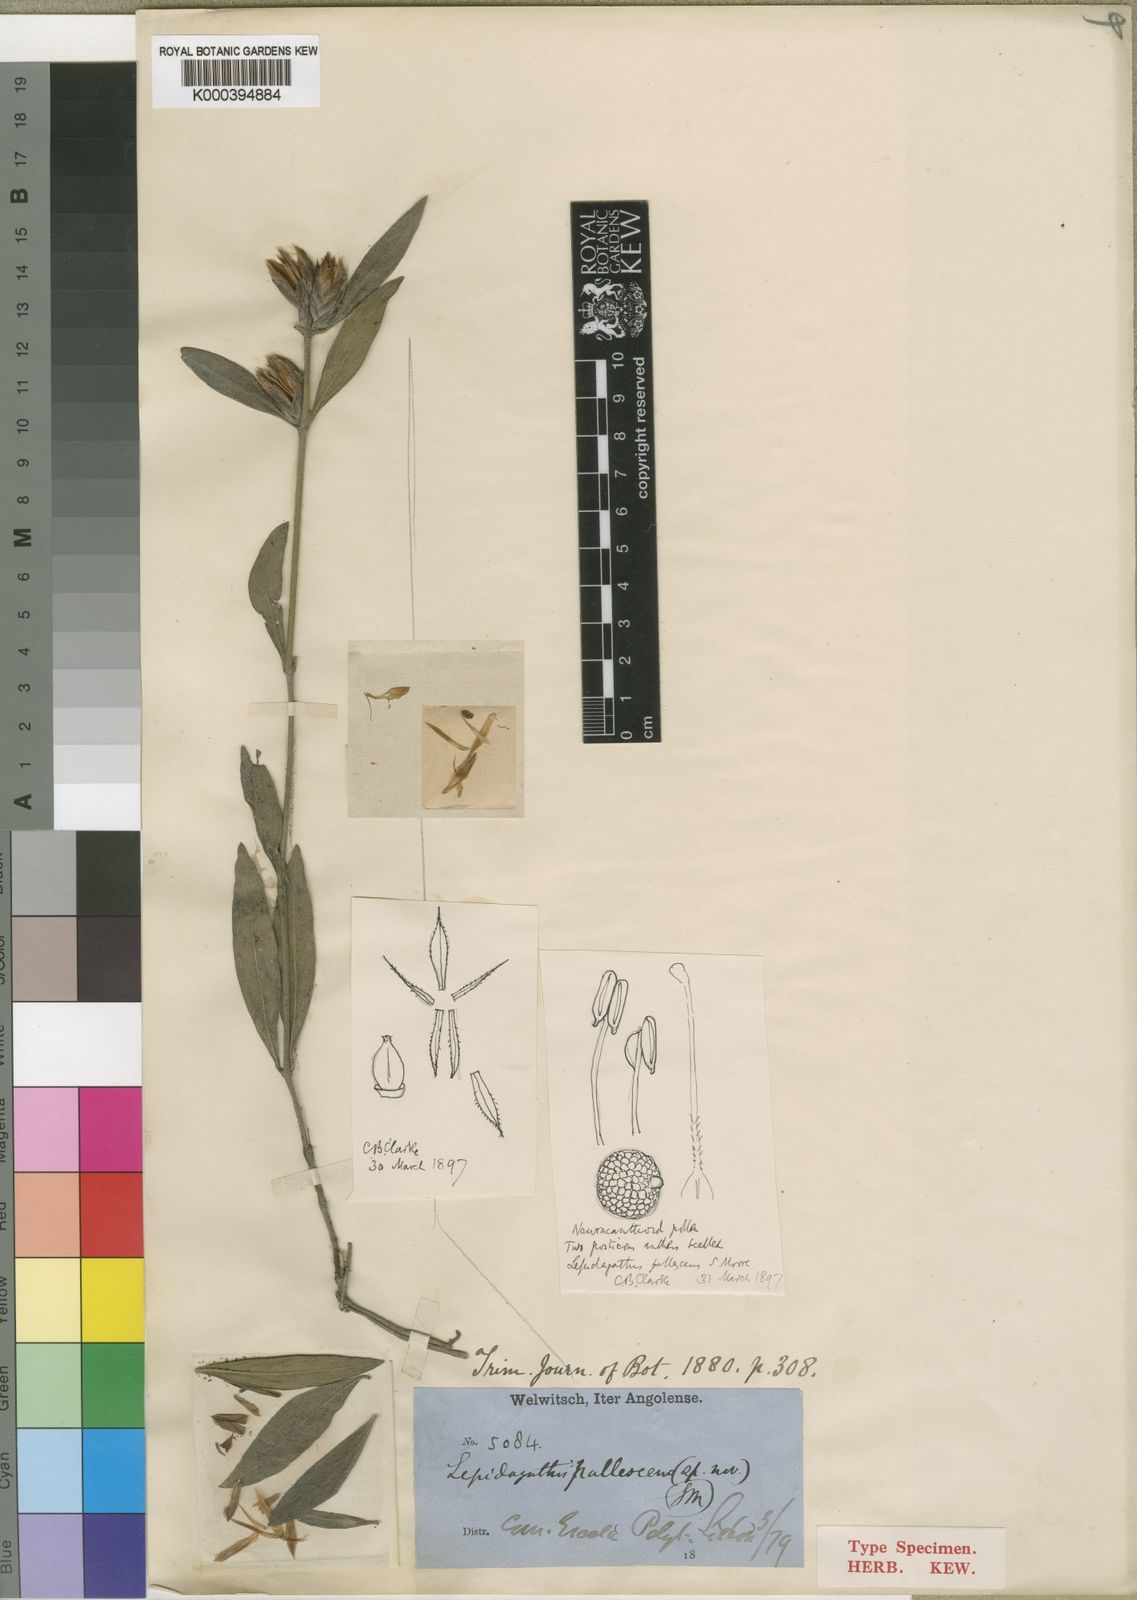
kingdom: Plantae
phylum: Tracheophyta
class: Magnoliopsida
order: Lamiales
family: Acanthaceae
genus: Lepidagathis
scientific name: Lepidagathis pallescens
